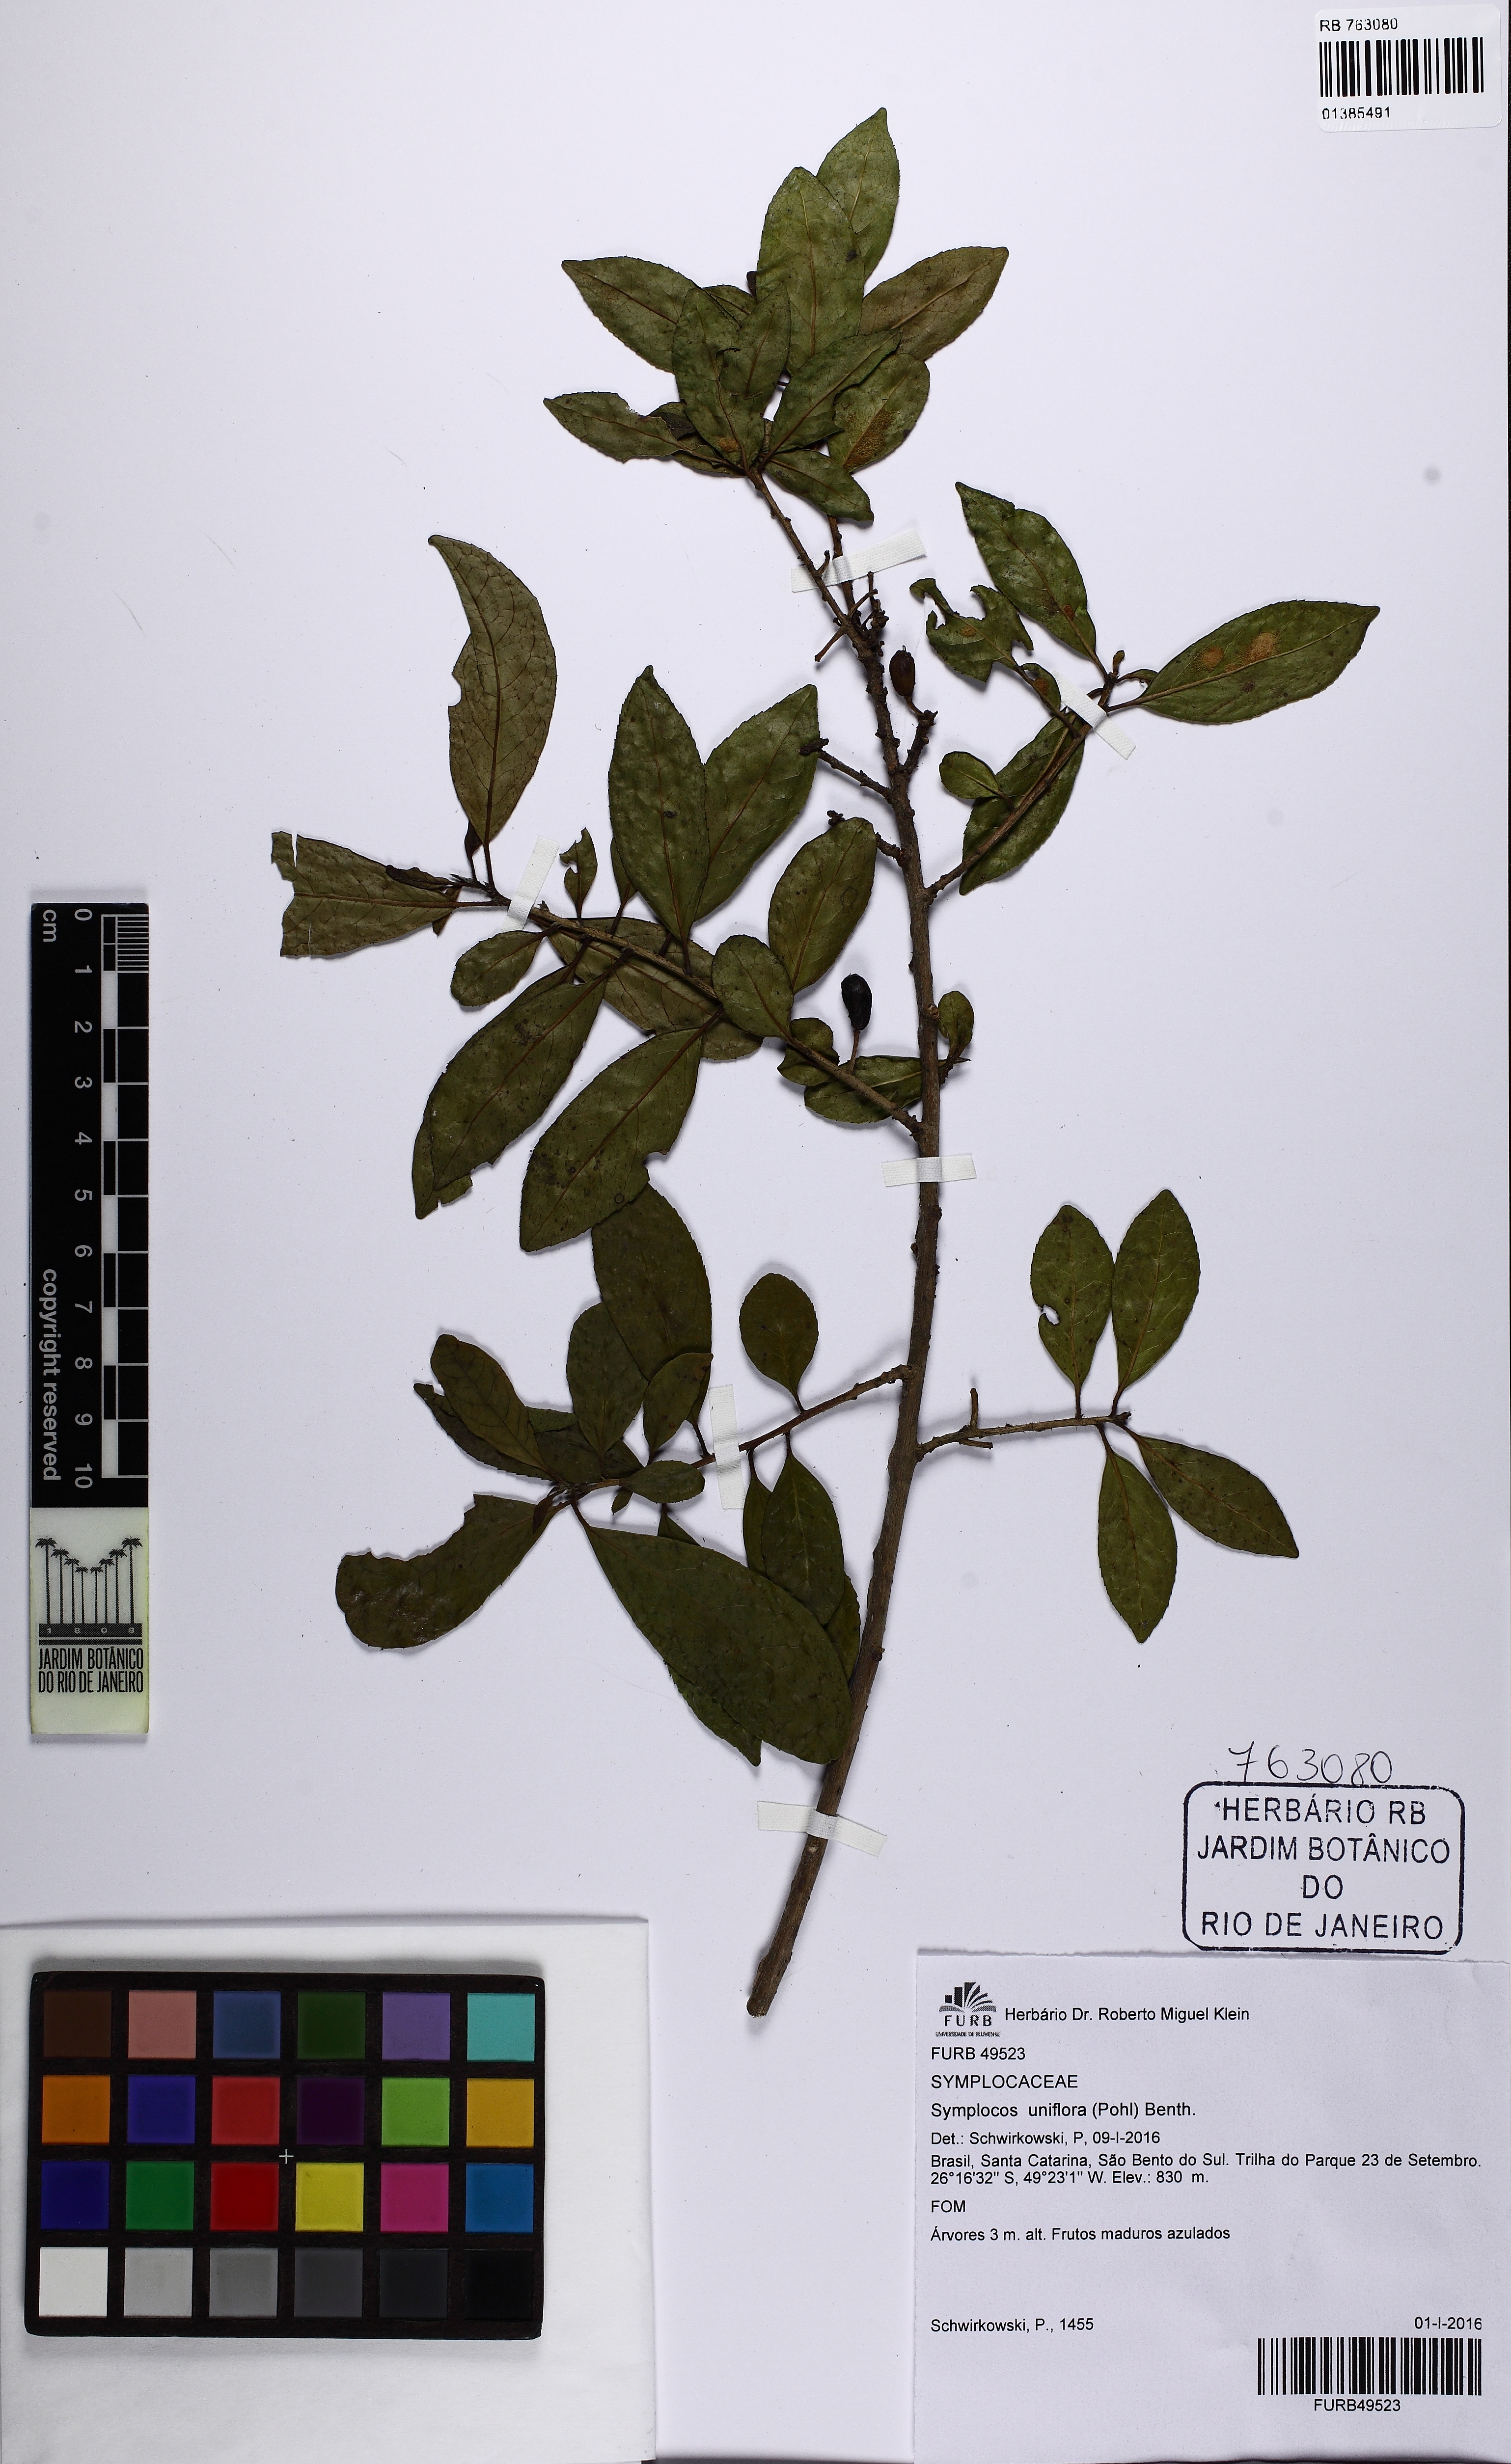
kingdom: Plantae
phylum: Tracheophyta
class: Magnoliopsida
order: Ericales
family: Symplocaceae
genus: Symplocos
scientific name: Symplocos uniflora
